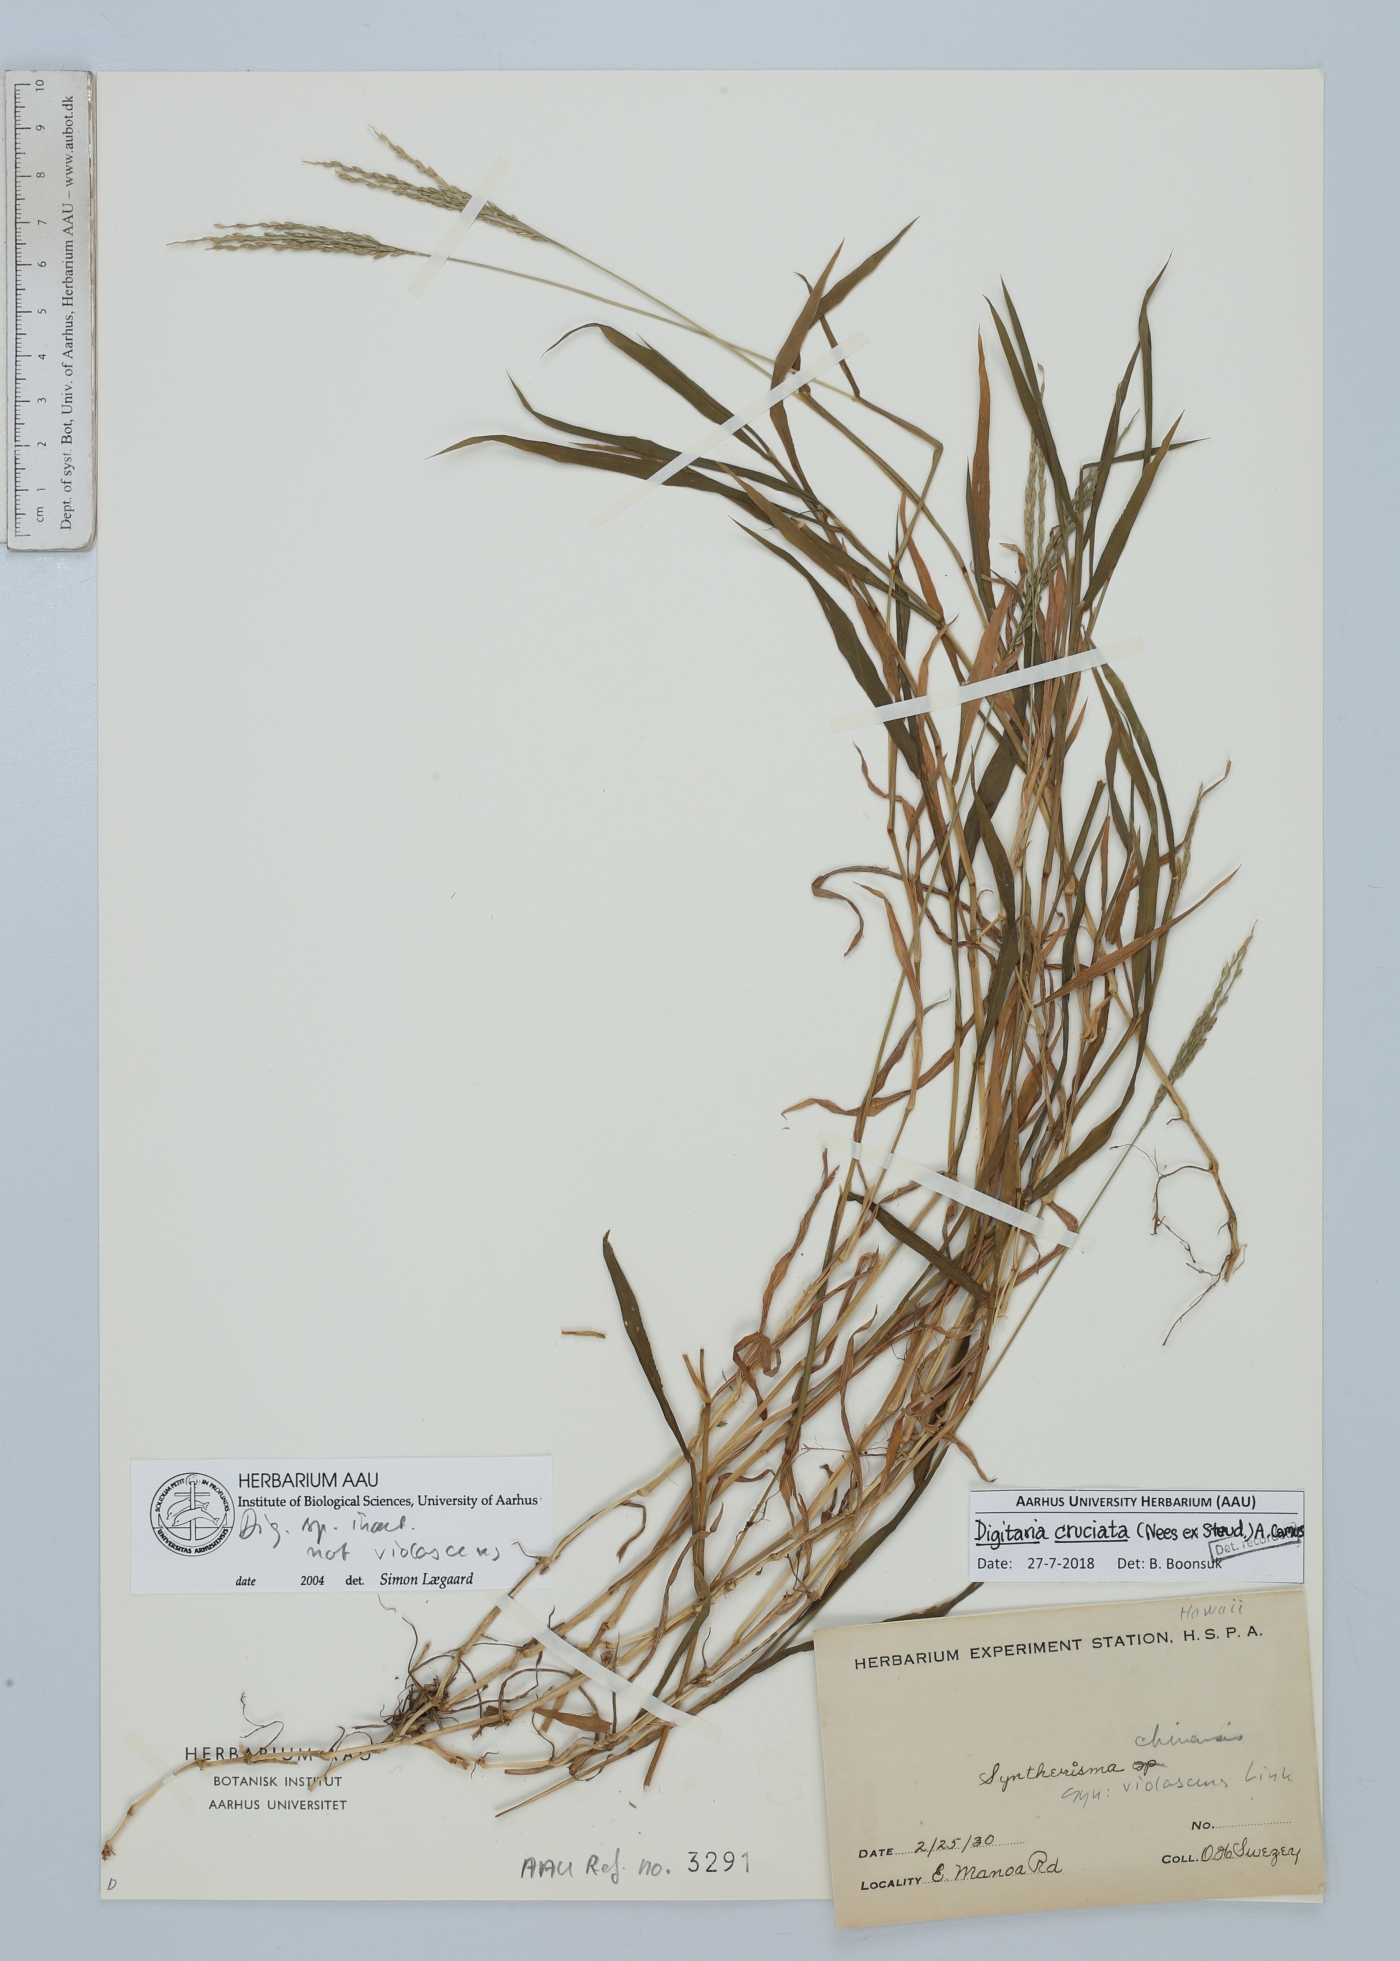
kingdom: Plantae
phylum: Tracheophyta
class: Liliopsida
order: Poales
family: Poaceae
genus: Digitaria
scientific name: Digitaria cruciata
